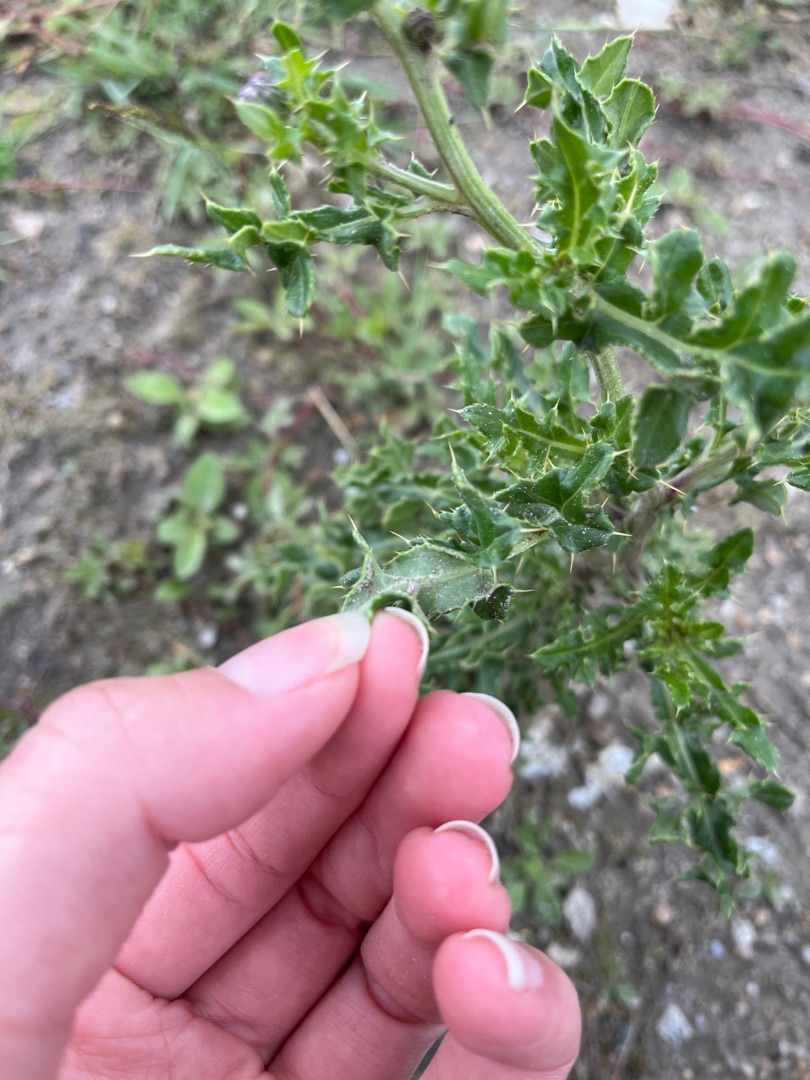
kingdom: Plantae
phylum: Tracheophyta
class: Magnoliopsida
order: Asterales
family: Asteraceae
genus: Cirsium
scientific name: Cirsium arvense
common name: Ager-tidsel
